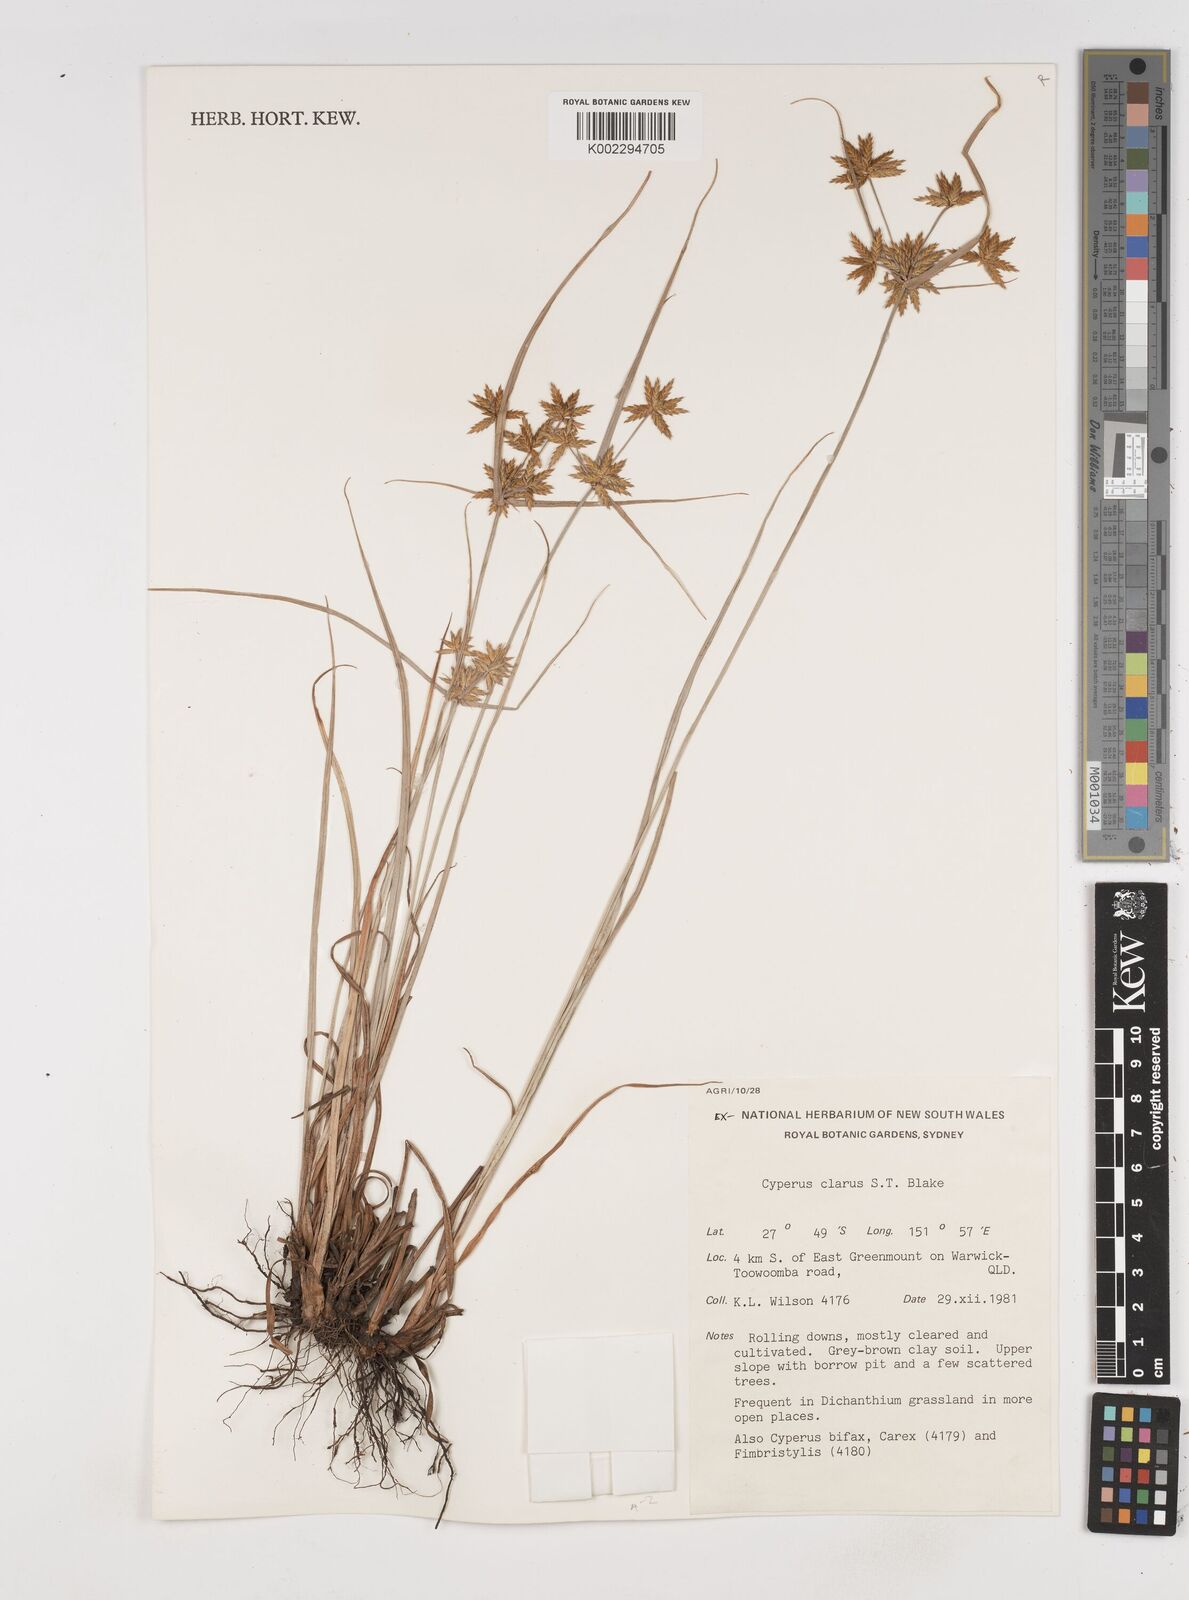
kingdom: Plantae
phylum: Tracheophyta
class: Liliopsida
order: Poales
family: Cyperaceae
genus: Cyperus
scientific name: Cyperus clarus
